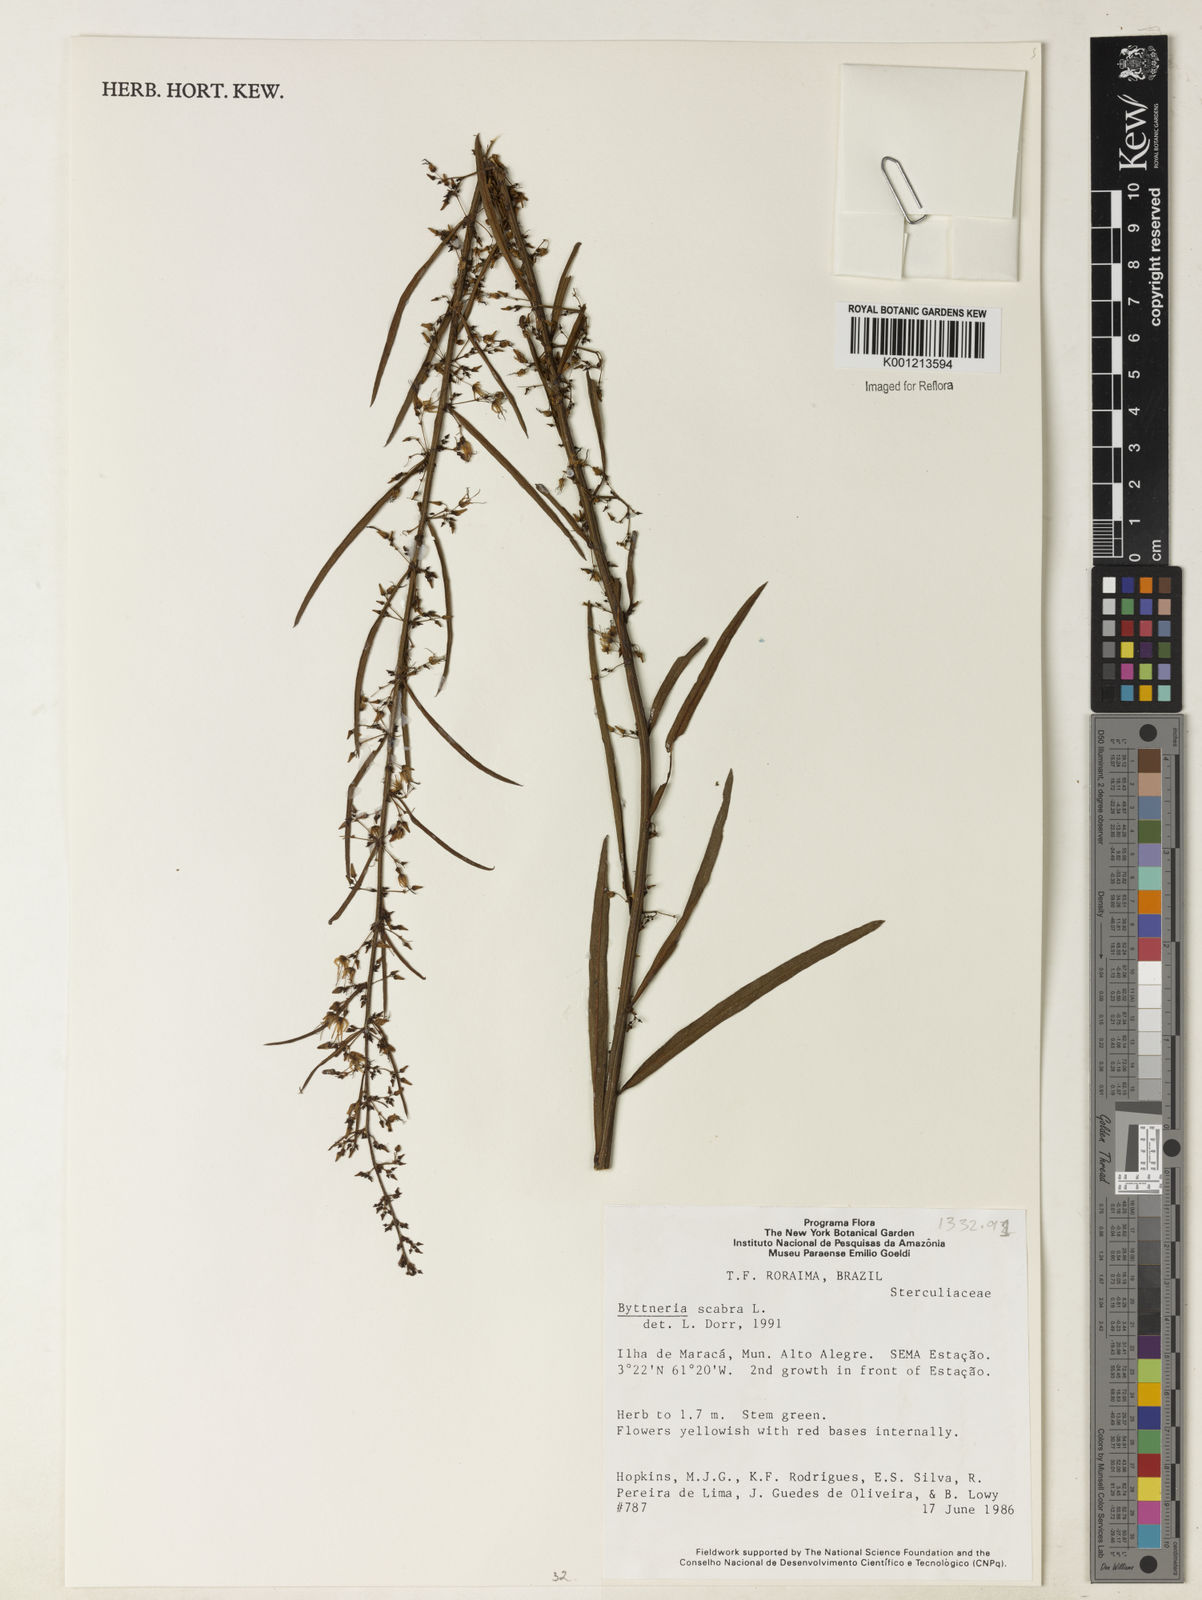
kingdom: Plantae
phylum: Tracheophyta
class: Magnoliopsida
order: Malvales
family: Malvaceae
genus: Byttneria
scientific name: Byttneria
